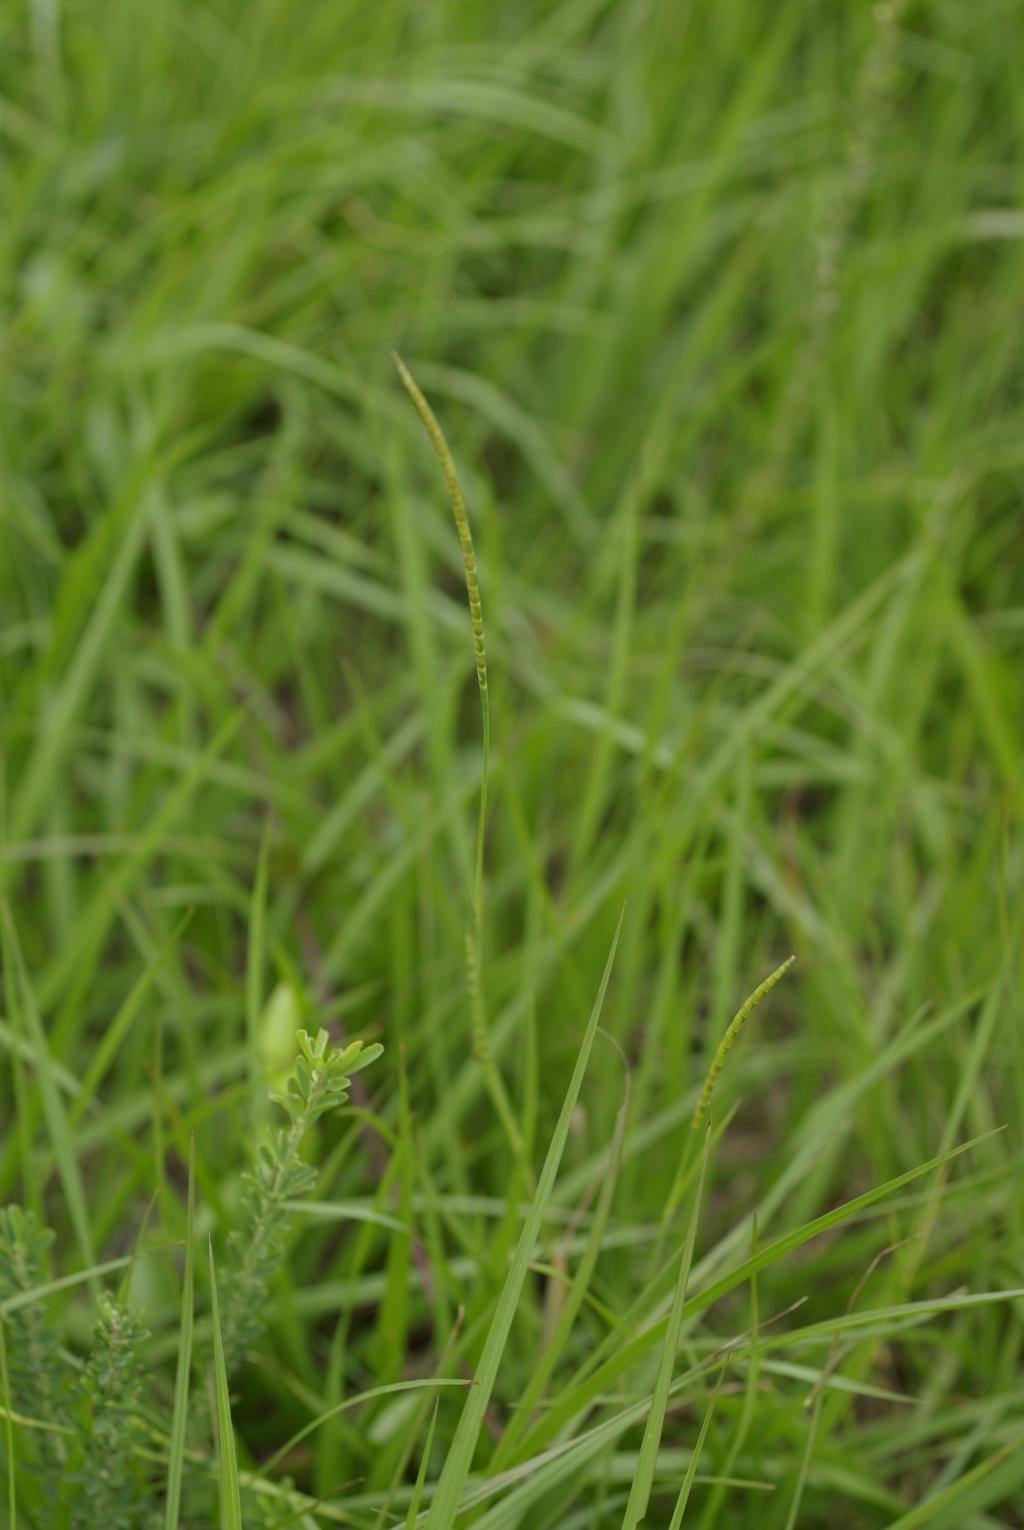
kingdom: Plantae
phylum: Tracheophyta
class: Liliopsida
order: Poales
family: Poaceae
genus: Mnesithea
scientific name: Mnesithea laevis
